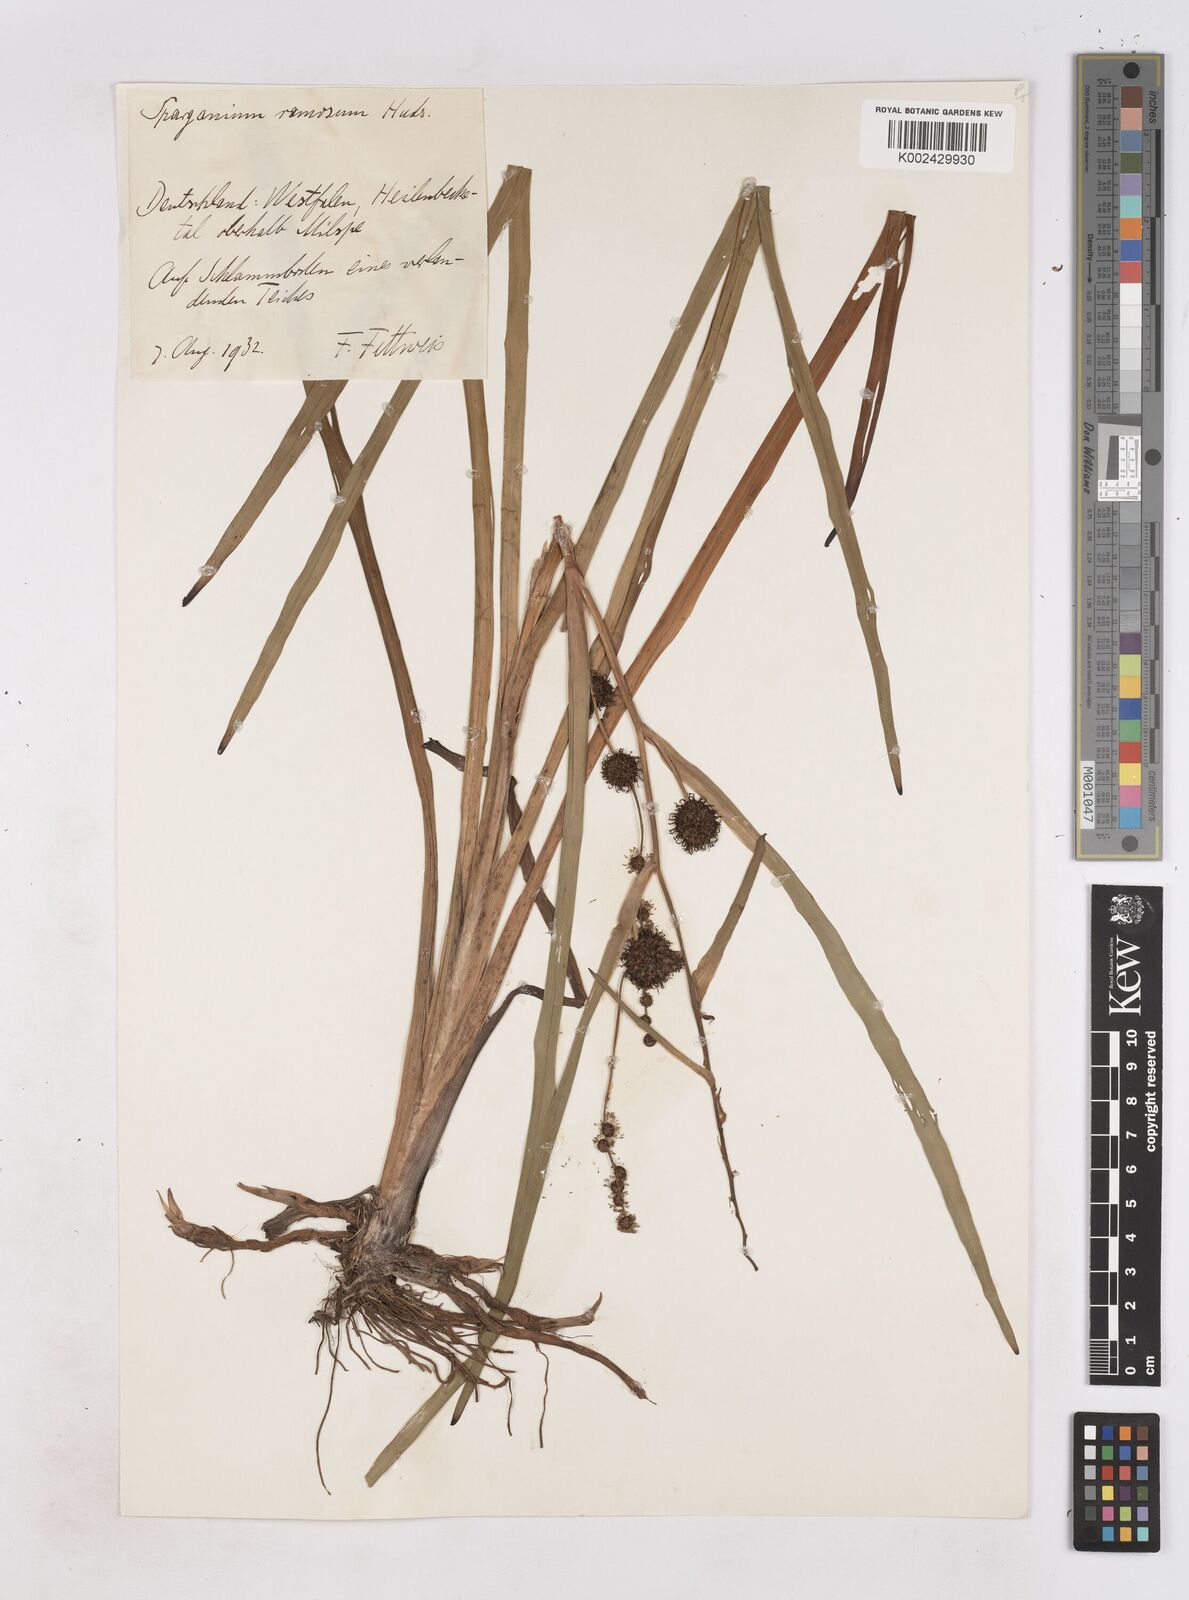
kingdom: Plantae
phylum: Tracheophyta
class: Liliopsida
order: Poales
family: Typhaceae
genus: Sparganium
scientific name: Sparganium erectum
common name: Branched bur-reed
